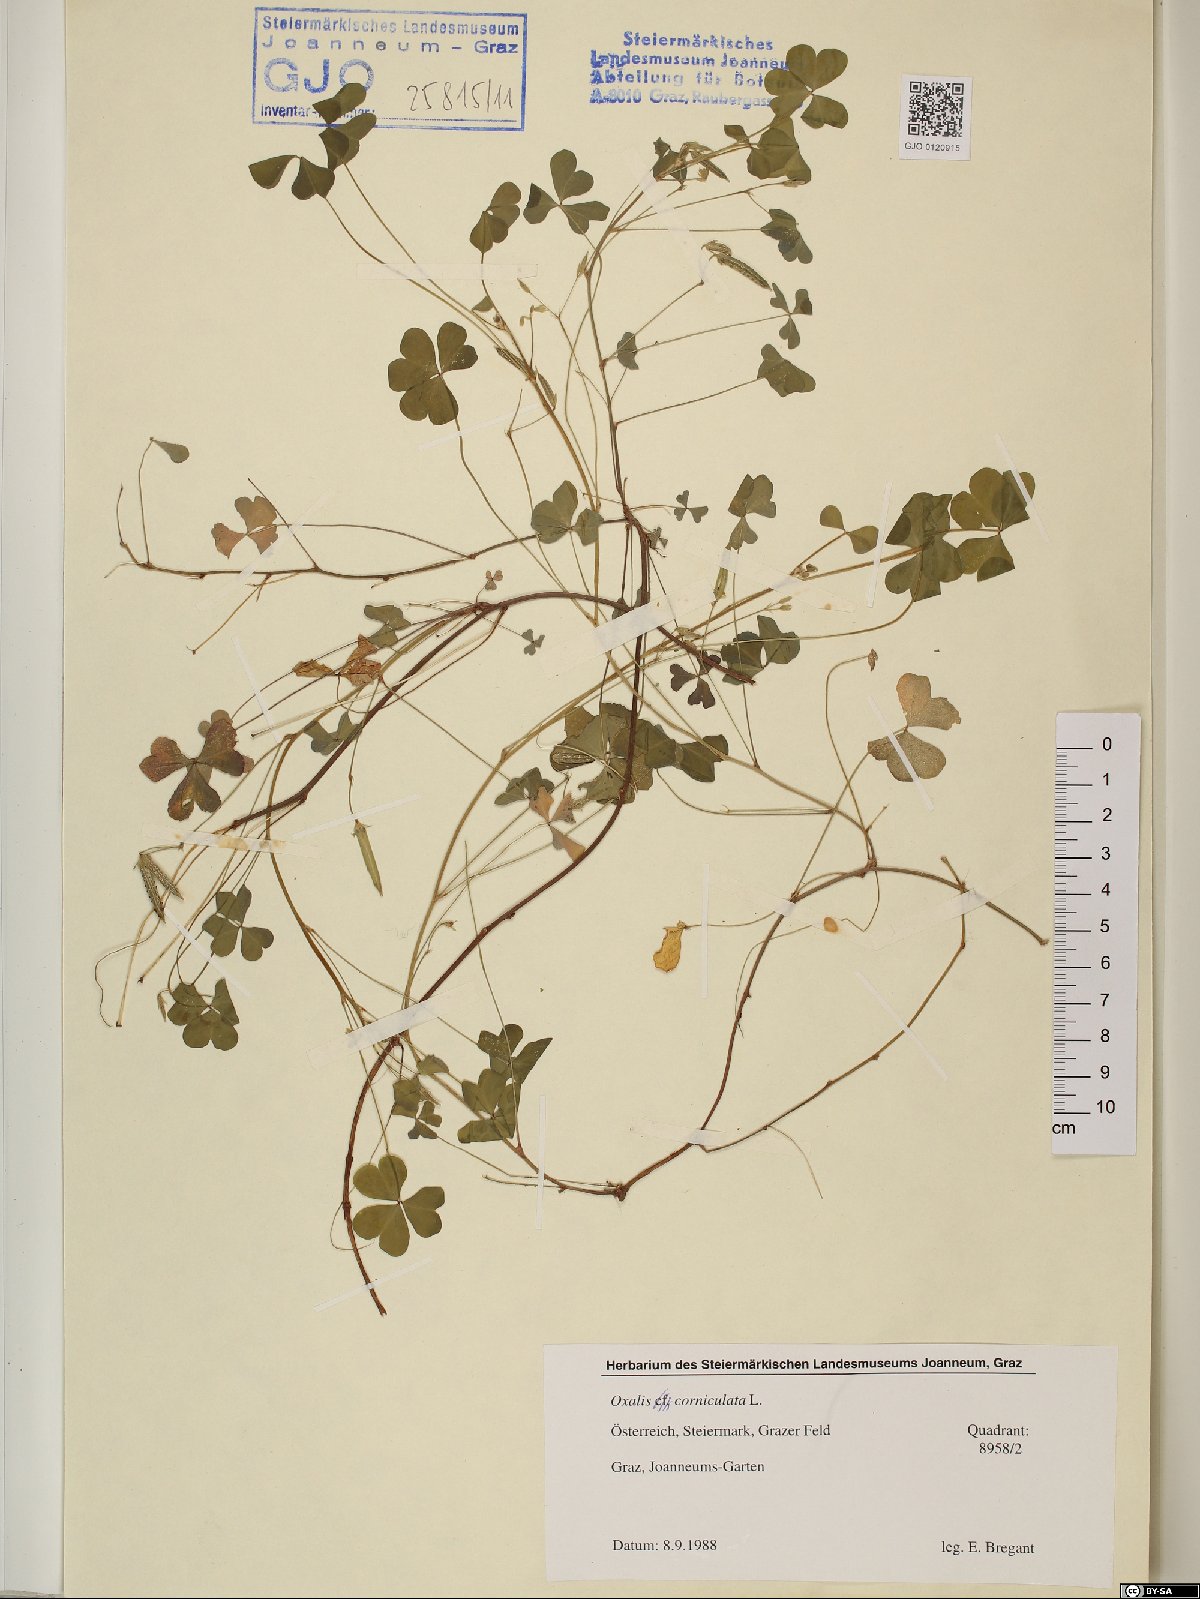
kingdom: Plantae
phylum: Tracheophyta
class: Magnoliopsida
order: Oxalidales
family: Oxalidaceae
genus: Oxalis
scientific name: Oxalis corniculata
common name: Procumbent yellow-sorrel
